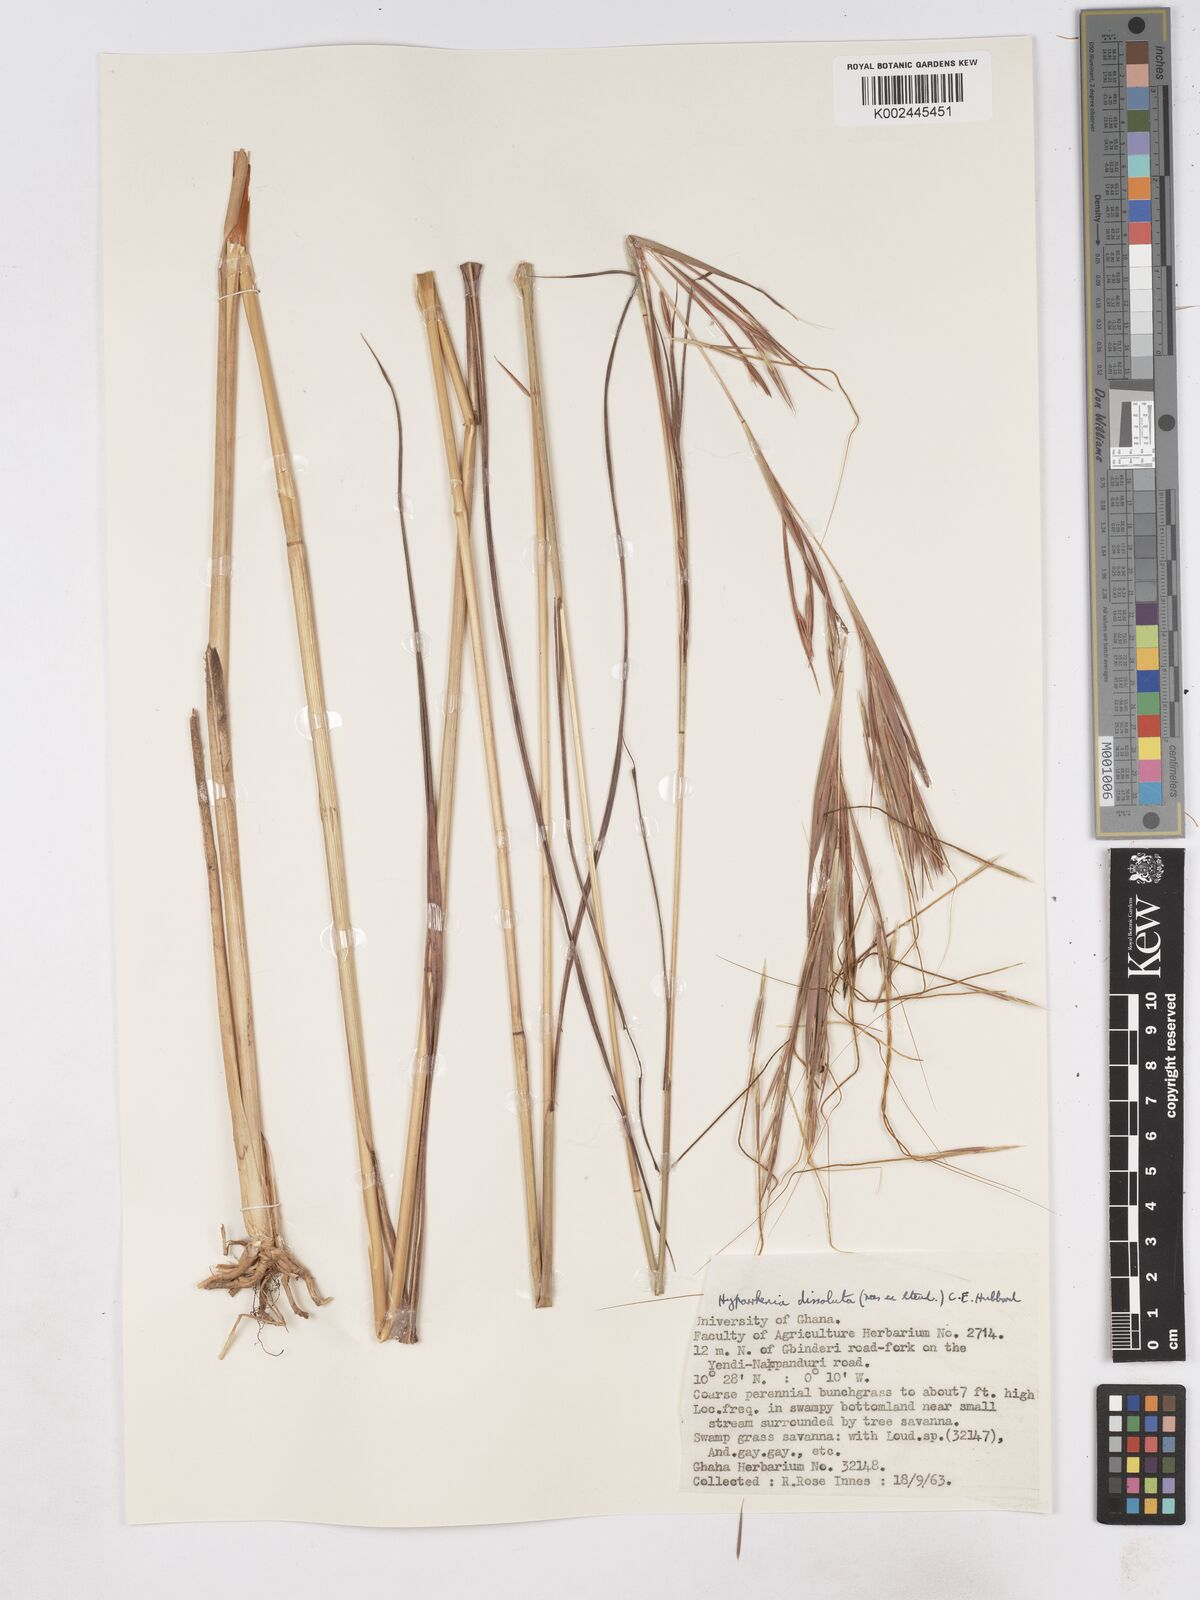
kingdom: Plantae
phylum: Tracheophyta
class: Liliopsida
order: Poales
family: Poaceae
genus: Hyperthelia
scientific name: Hyperthelia dissoluta
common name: Yellow thatching grass
